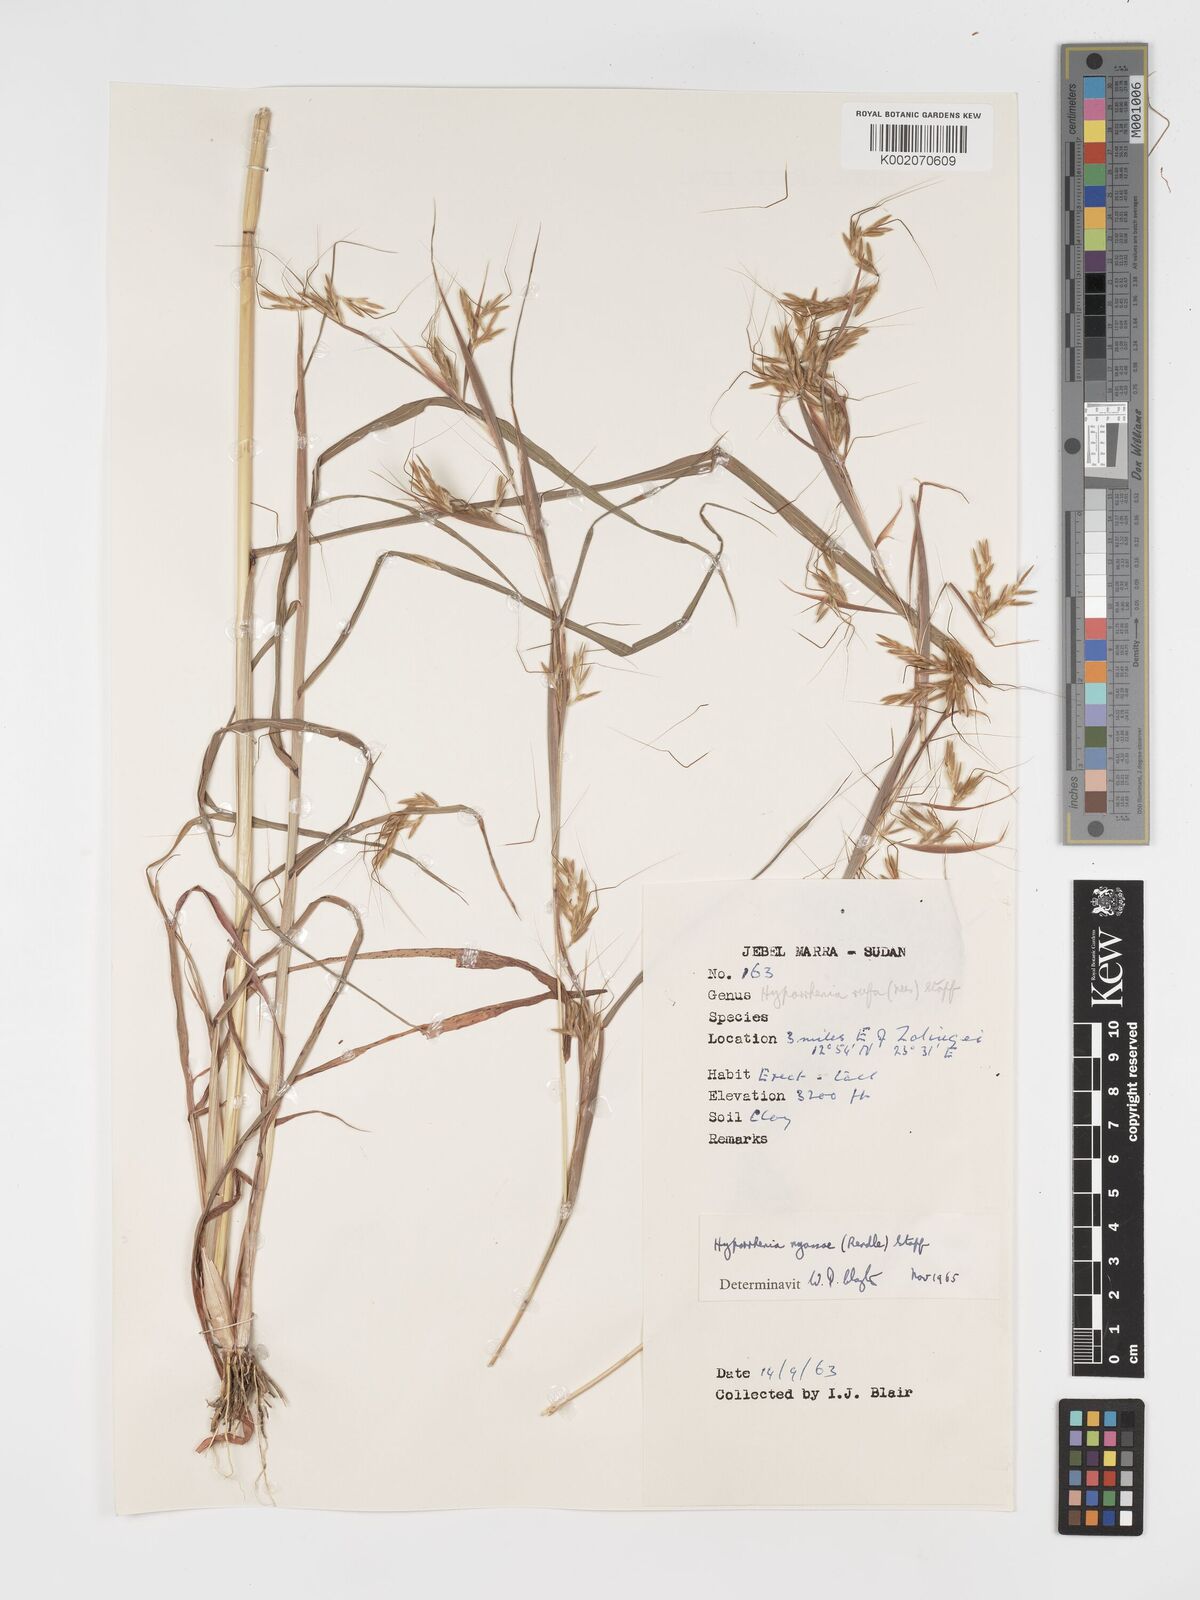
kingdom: Plantae
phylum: Tracheophyta
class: Liliopsida
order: Poales
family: Poaceae
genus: Hyparrhenia
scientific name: Hyparrhenia nyassae
